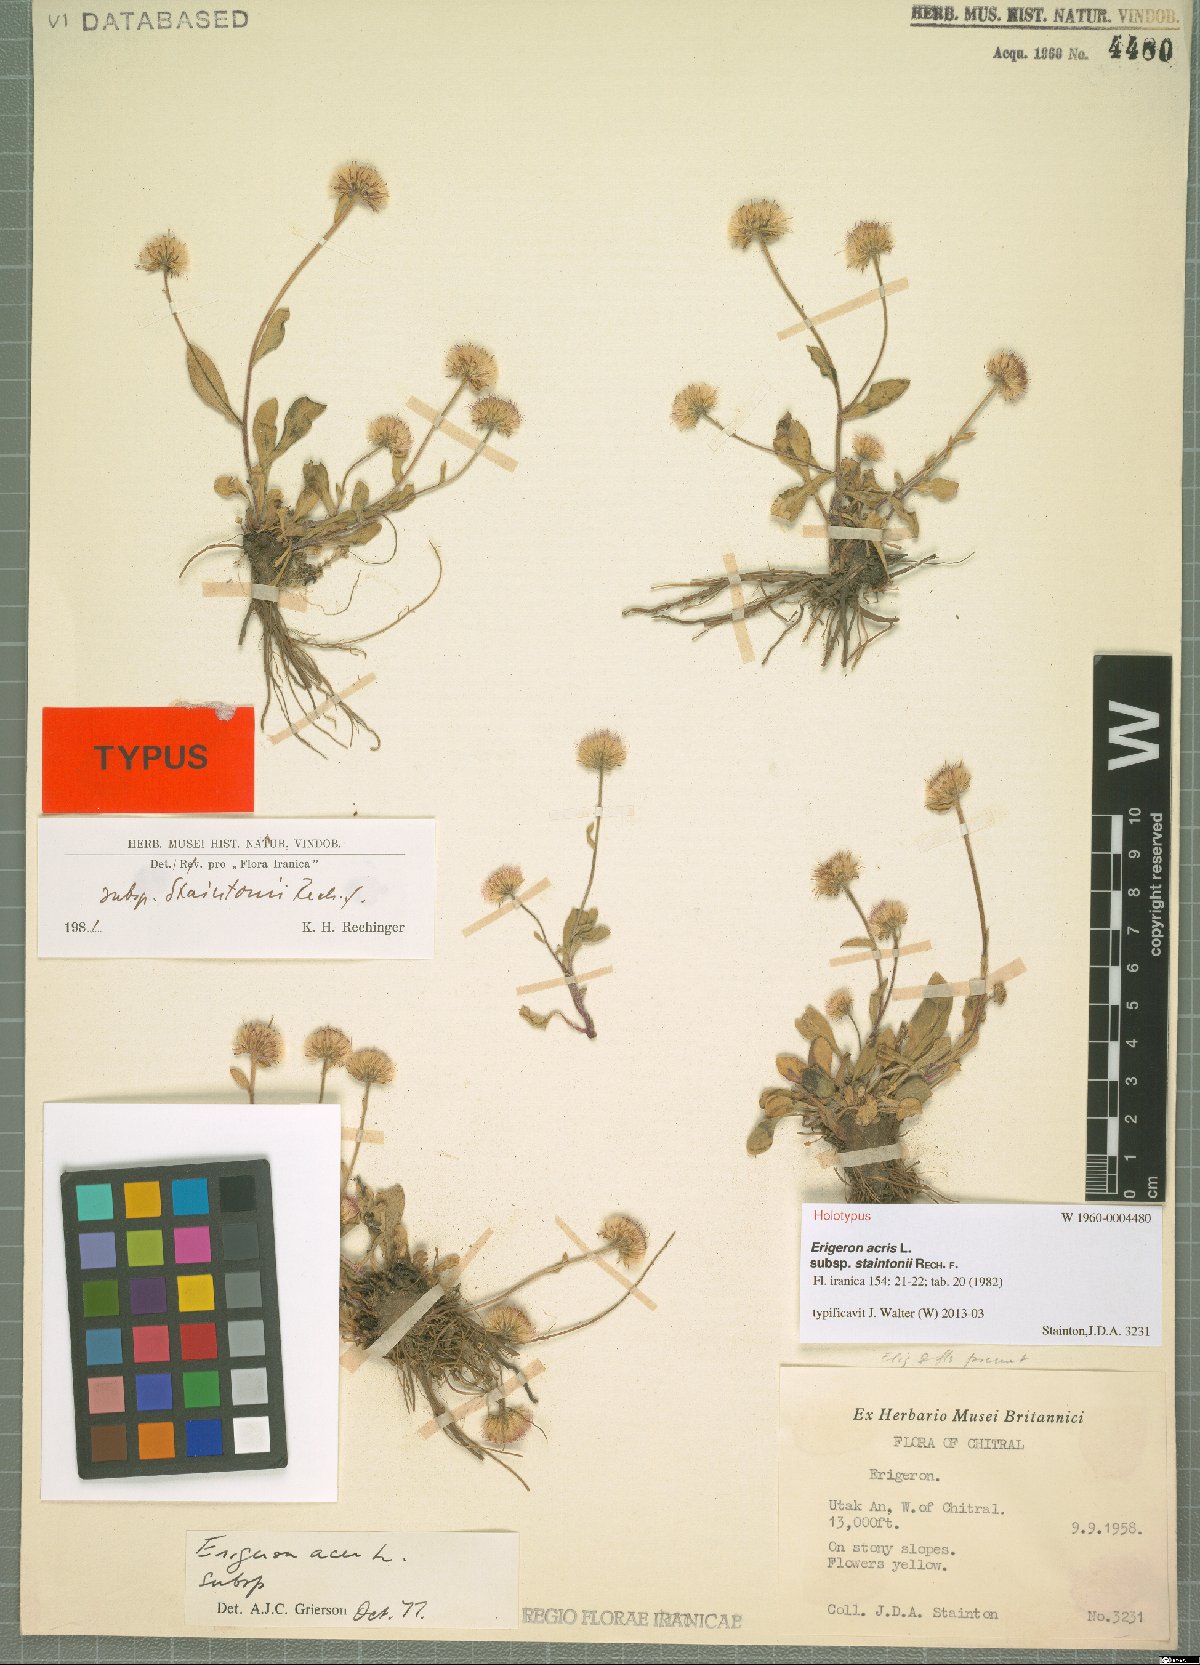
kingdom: Plantae
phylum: Tracheophyta
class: Magnoliopsida
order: Asterales
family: Asteraceae
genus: Erigeron
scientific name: Erigeron acris
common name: Blue fleabane
